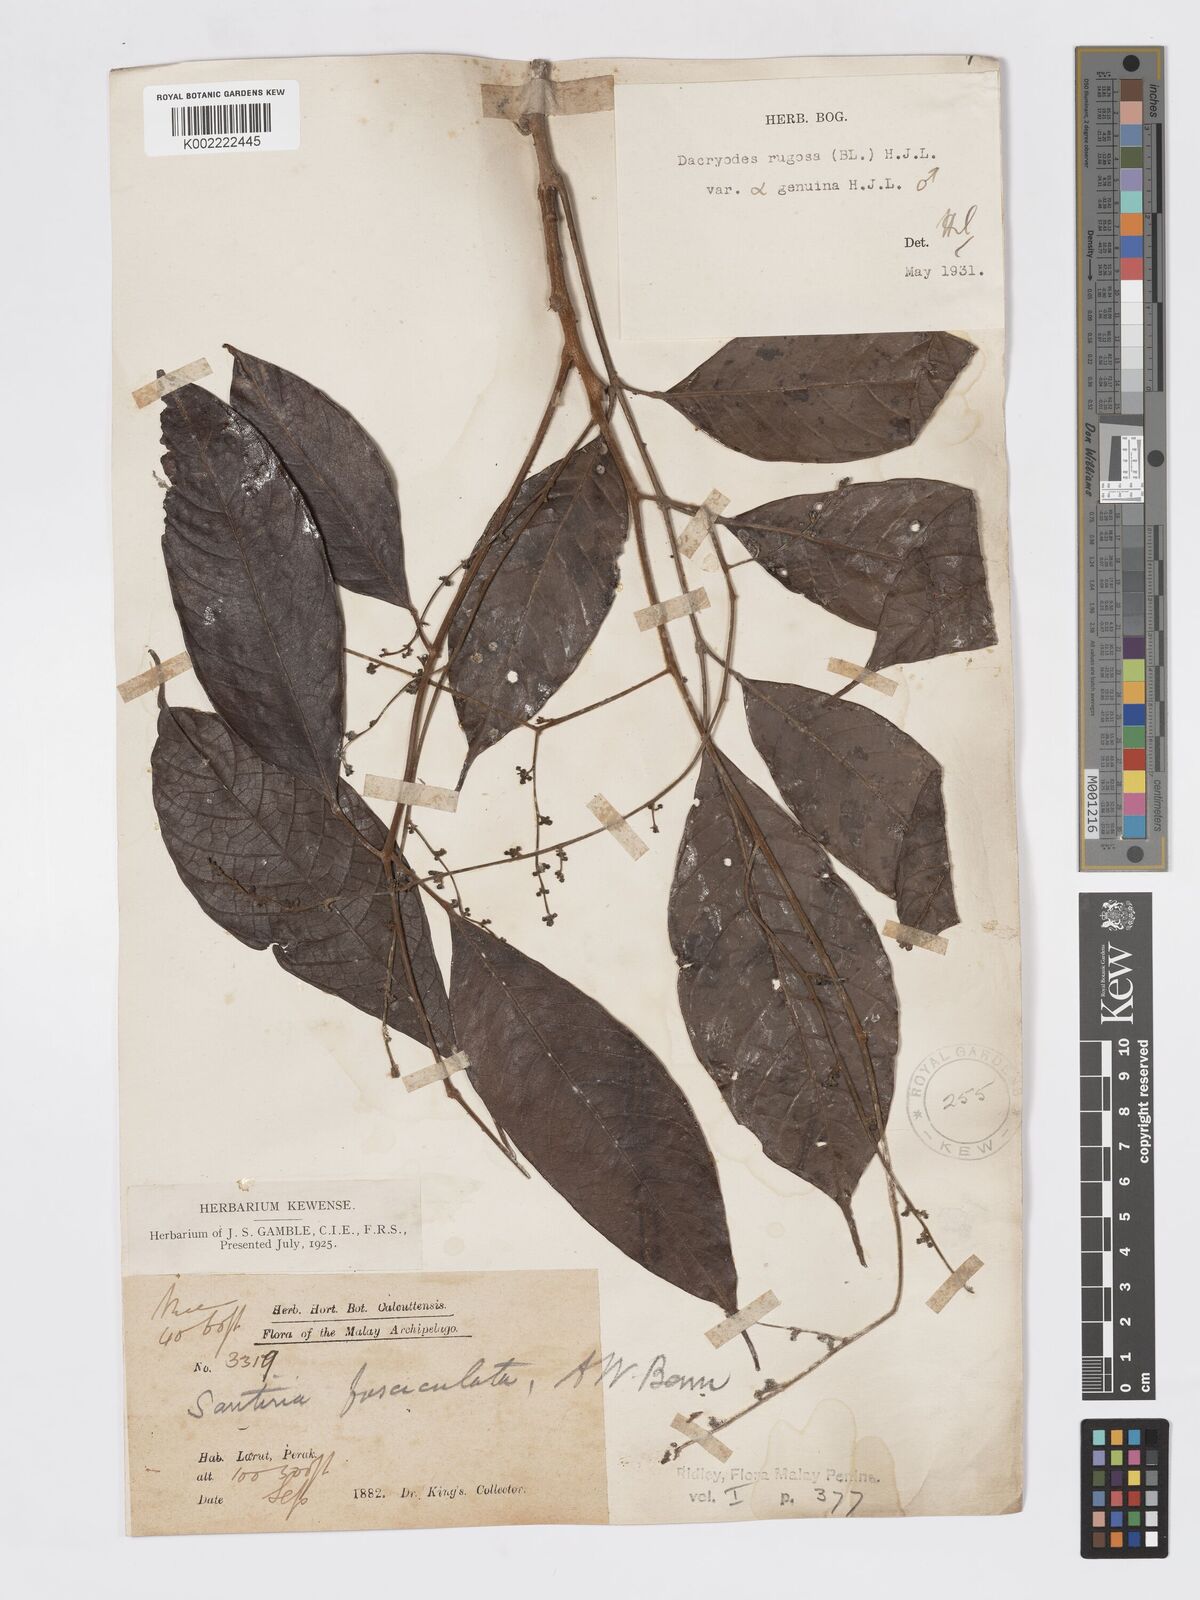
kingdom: Plantae
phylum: Tracheophyta
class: Magnoliopsida
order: Sapindales
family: Burseraceae
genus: Dacryodes
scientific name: Dacryodes rugosa
